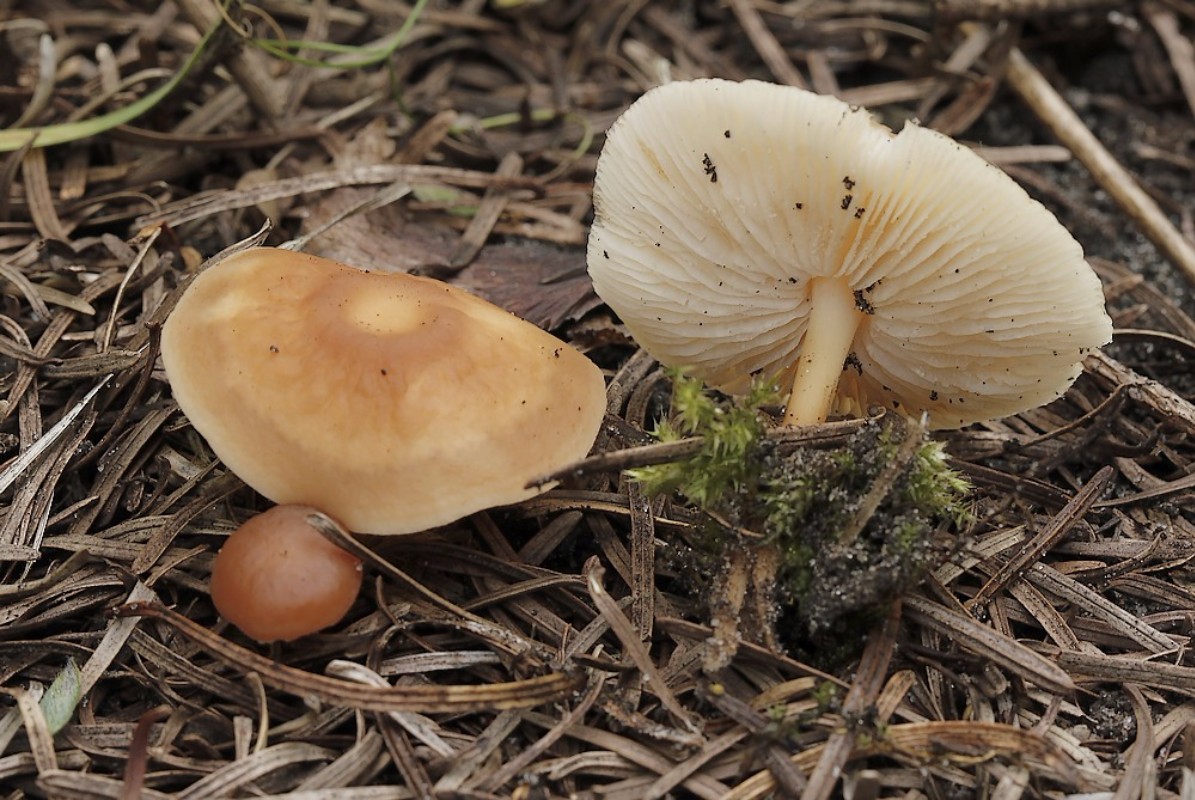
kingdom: Fungi
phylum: Basidiomycota
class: Agaricomycetes
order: Agaricales
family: Omphalotaceae
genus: Gymnopus
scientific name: Gymnopus dryophilus
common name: løv-fladhat
